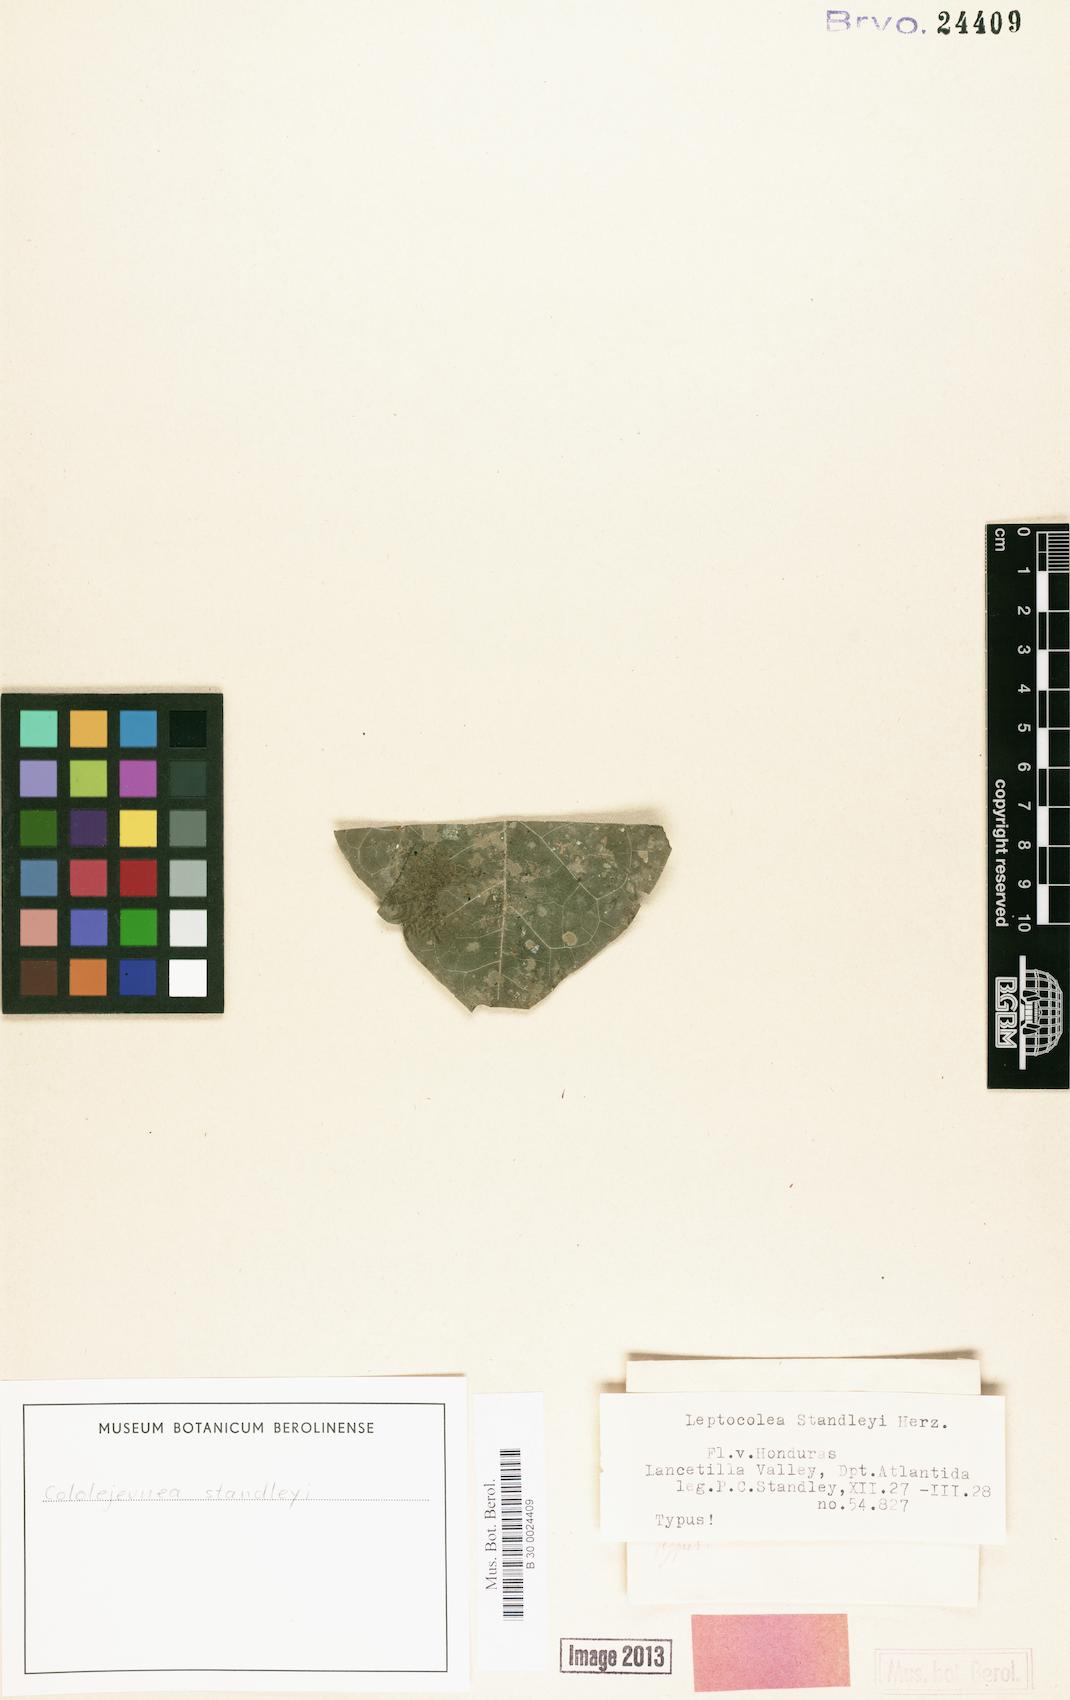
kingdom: Plantae
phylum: Marchantiophyta
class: Jungermanniopsida
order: Porellales
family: Lejeuneaceae
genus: Cololejeunea
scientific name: Cololejeunea standleyi
